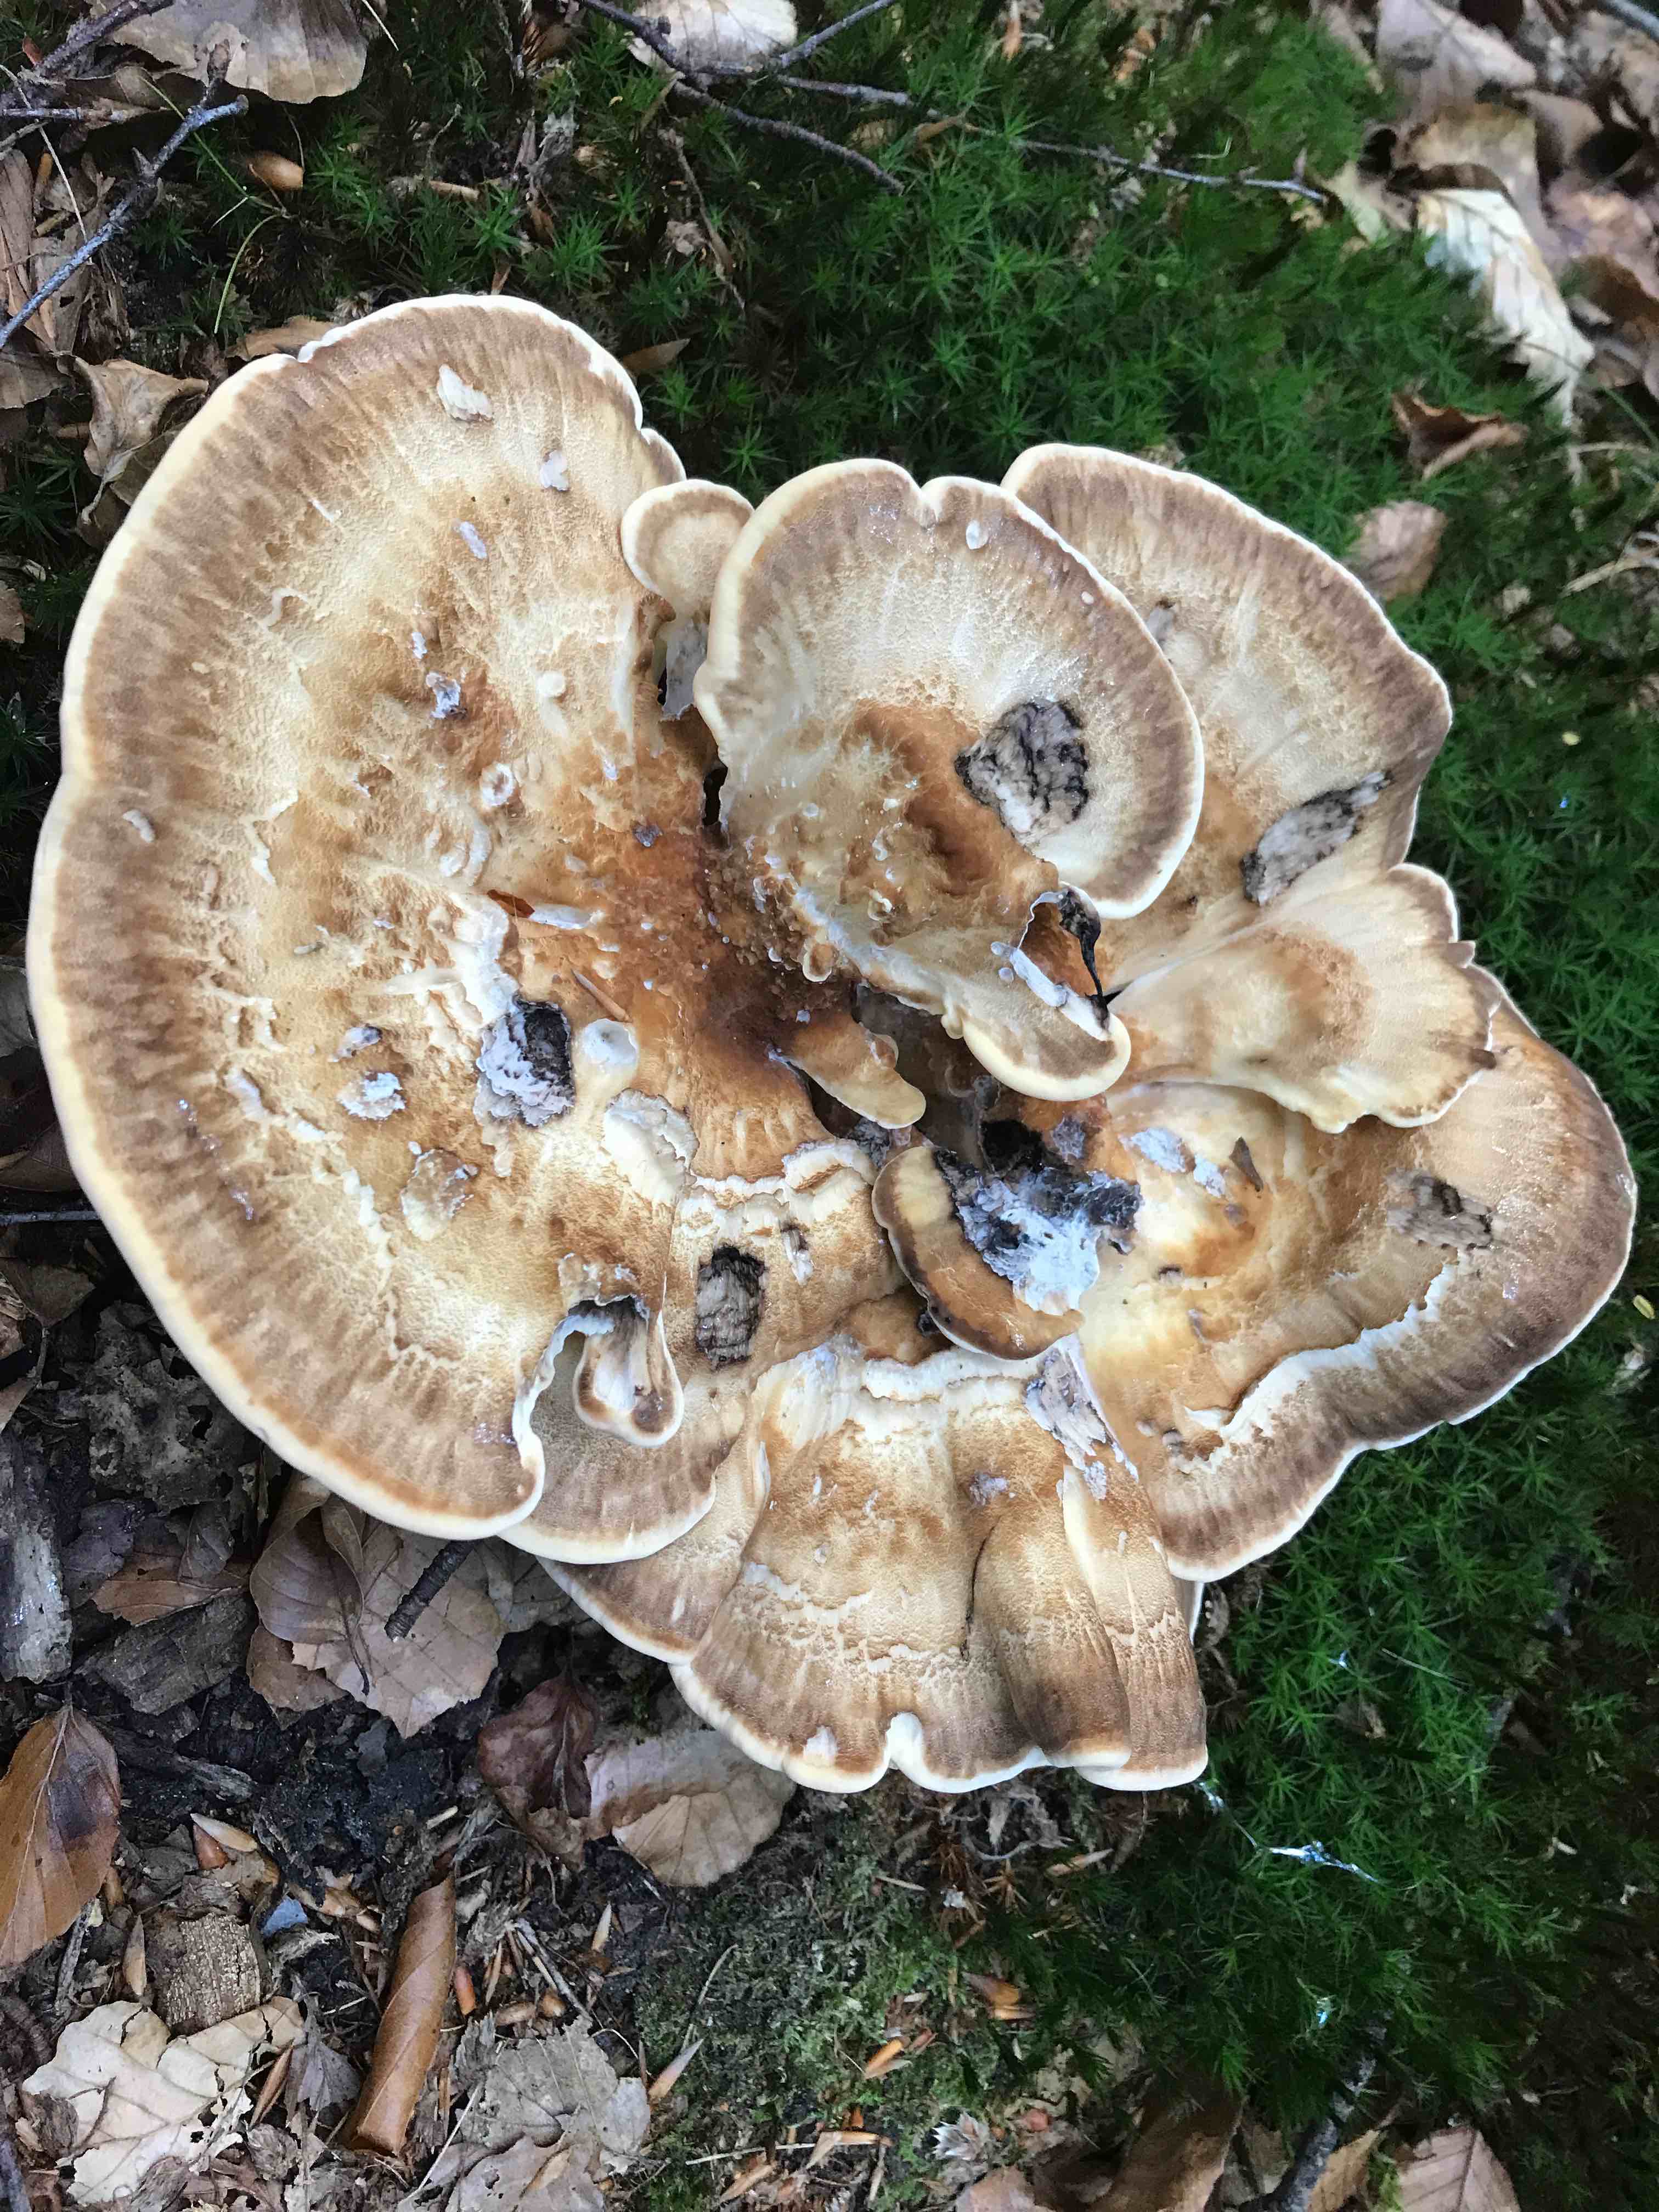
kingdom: Fungi
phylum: Basidiomycota
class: Agaricomycetes
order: Polyporales
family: Meripilaceae
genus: Meripilus
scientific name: Meripilus giganteus
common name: kæmpeporesvamp
